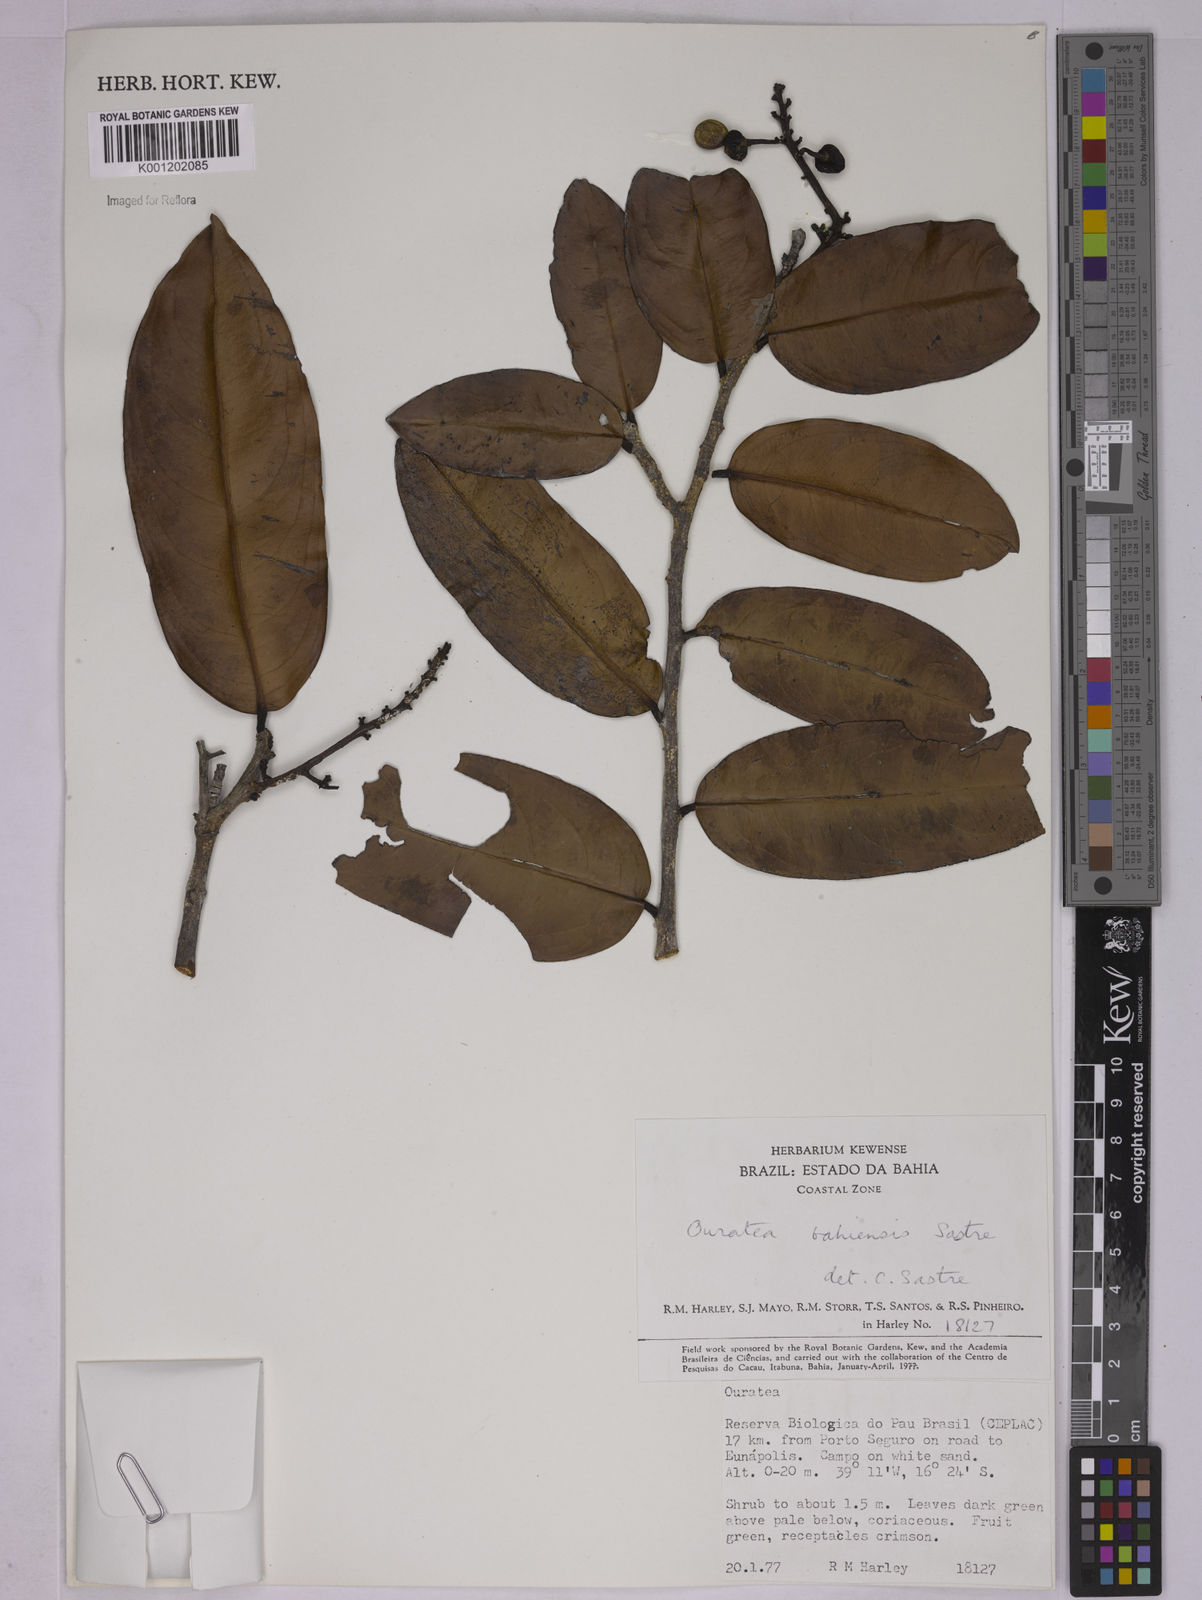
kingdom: Plantae
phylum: Tracheophyta
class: Magnoliopsida
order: Malpighiales
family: Ochnaceae
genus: Ouratea
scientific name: Ouratea bahiensis
